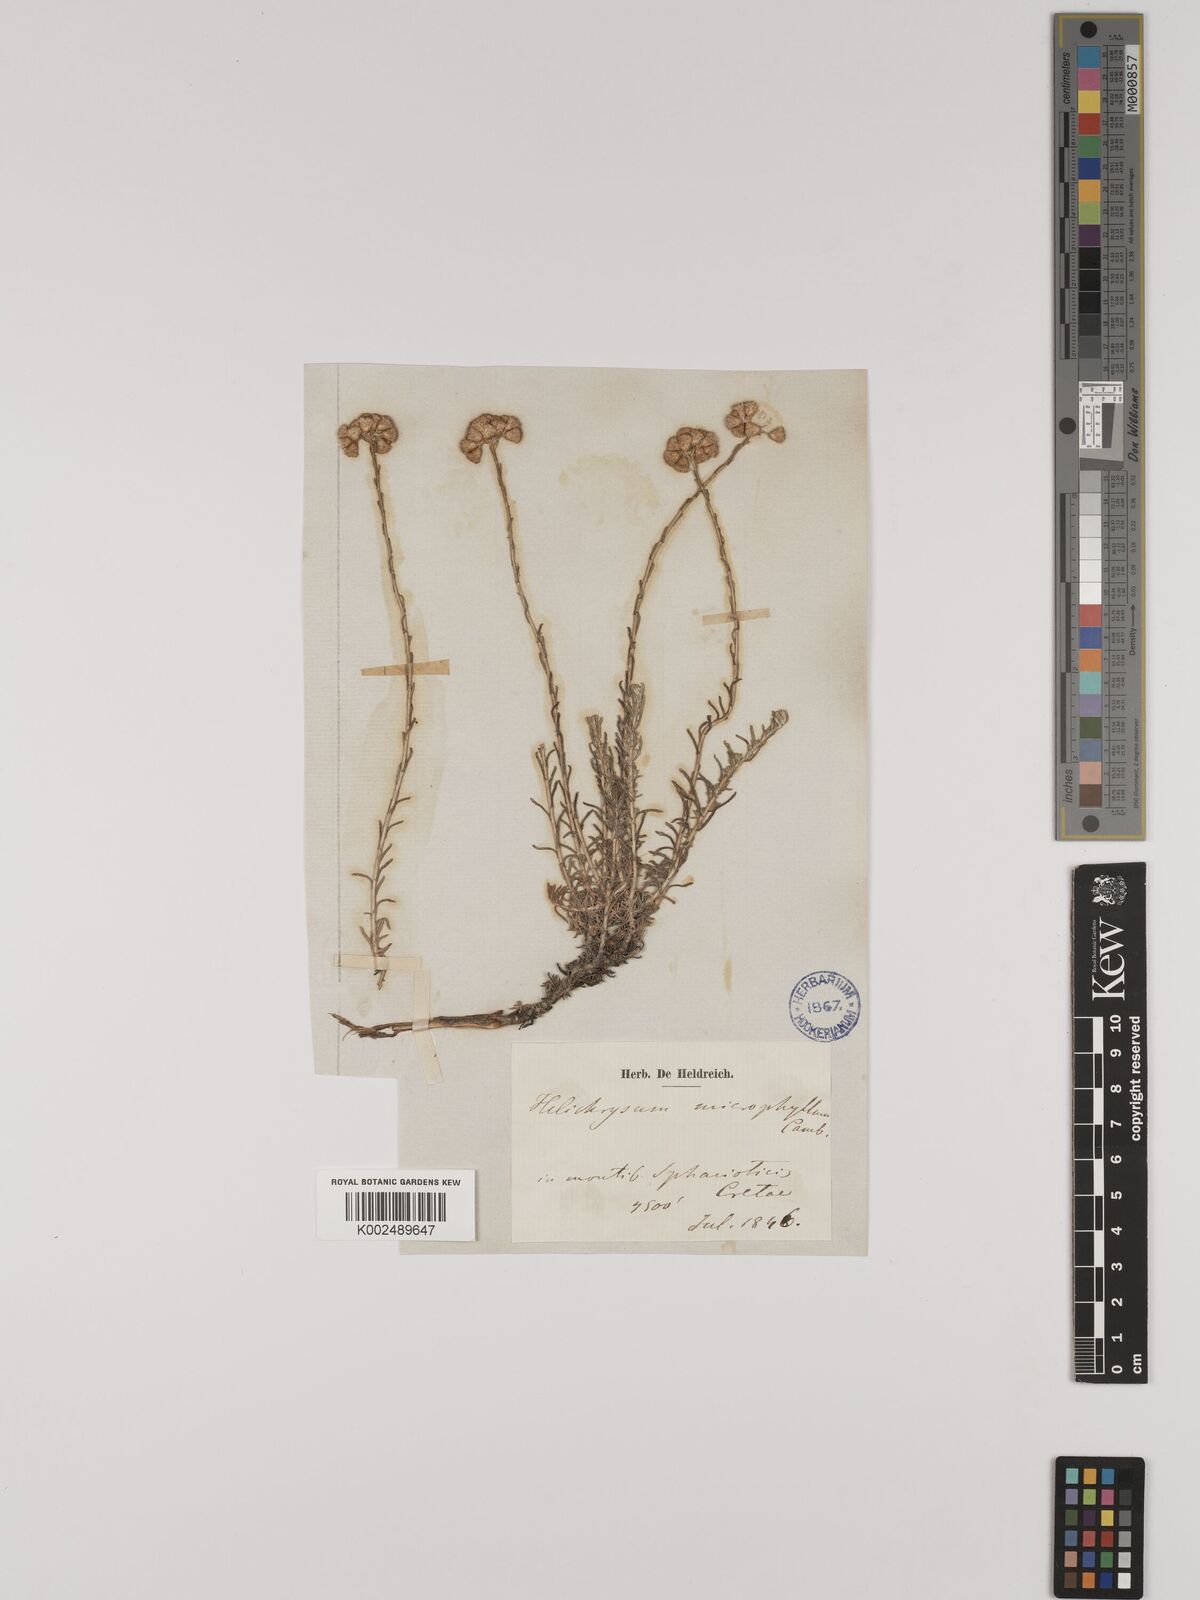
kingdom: Plantae
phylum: Tracheophyta
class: Magnoliopsida
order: Asterales
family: Asteraceae
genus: Helichrysum
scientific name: Helichrysum italicum
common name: Curryplant
